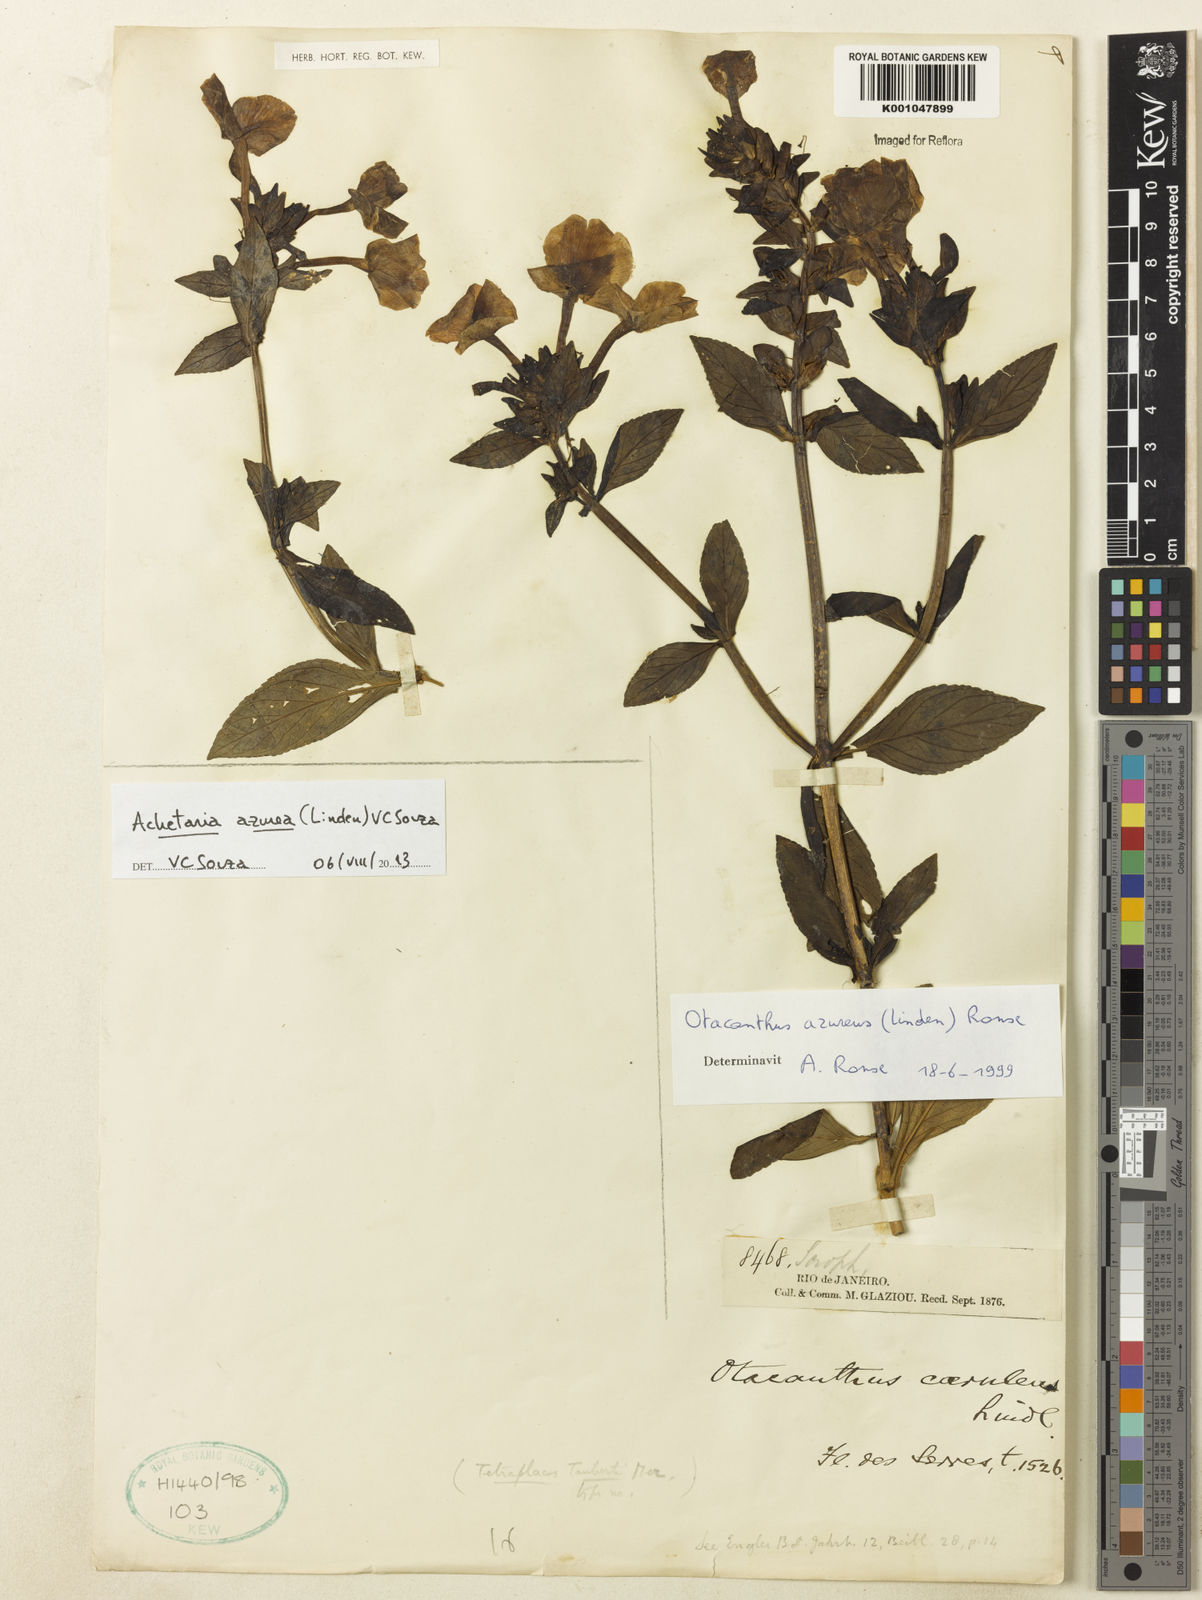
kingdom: Plantae
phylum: Tracheophyta
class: Magnoliopsida
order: Lamiales
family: Plantaginaceae
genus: Matourea
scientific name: Matourea azurea
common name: Amazon blue
